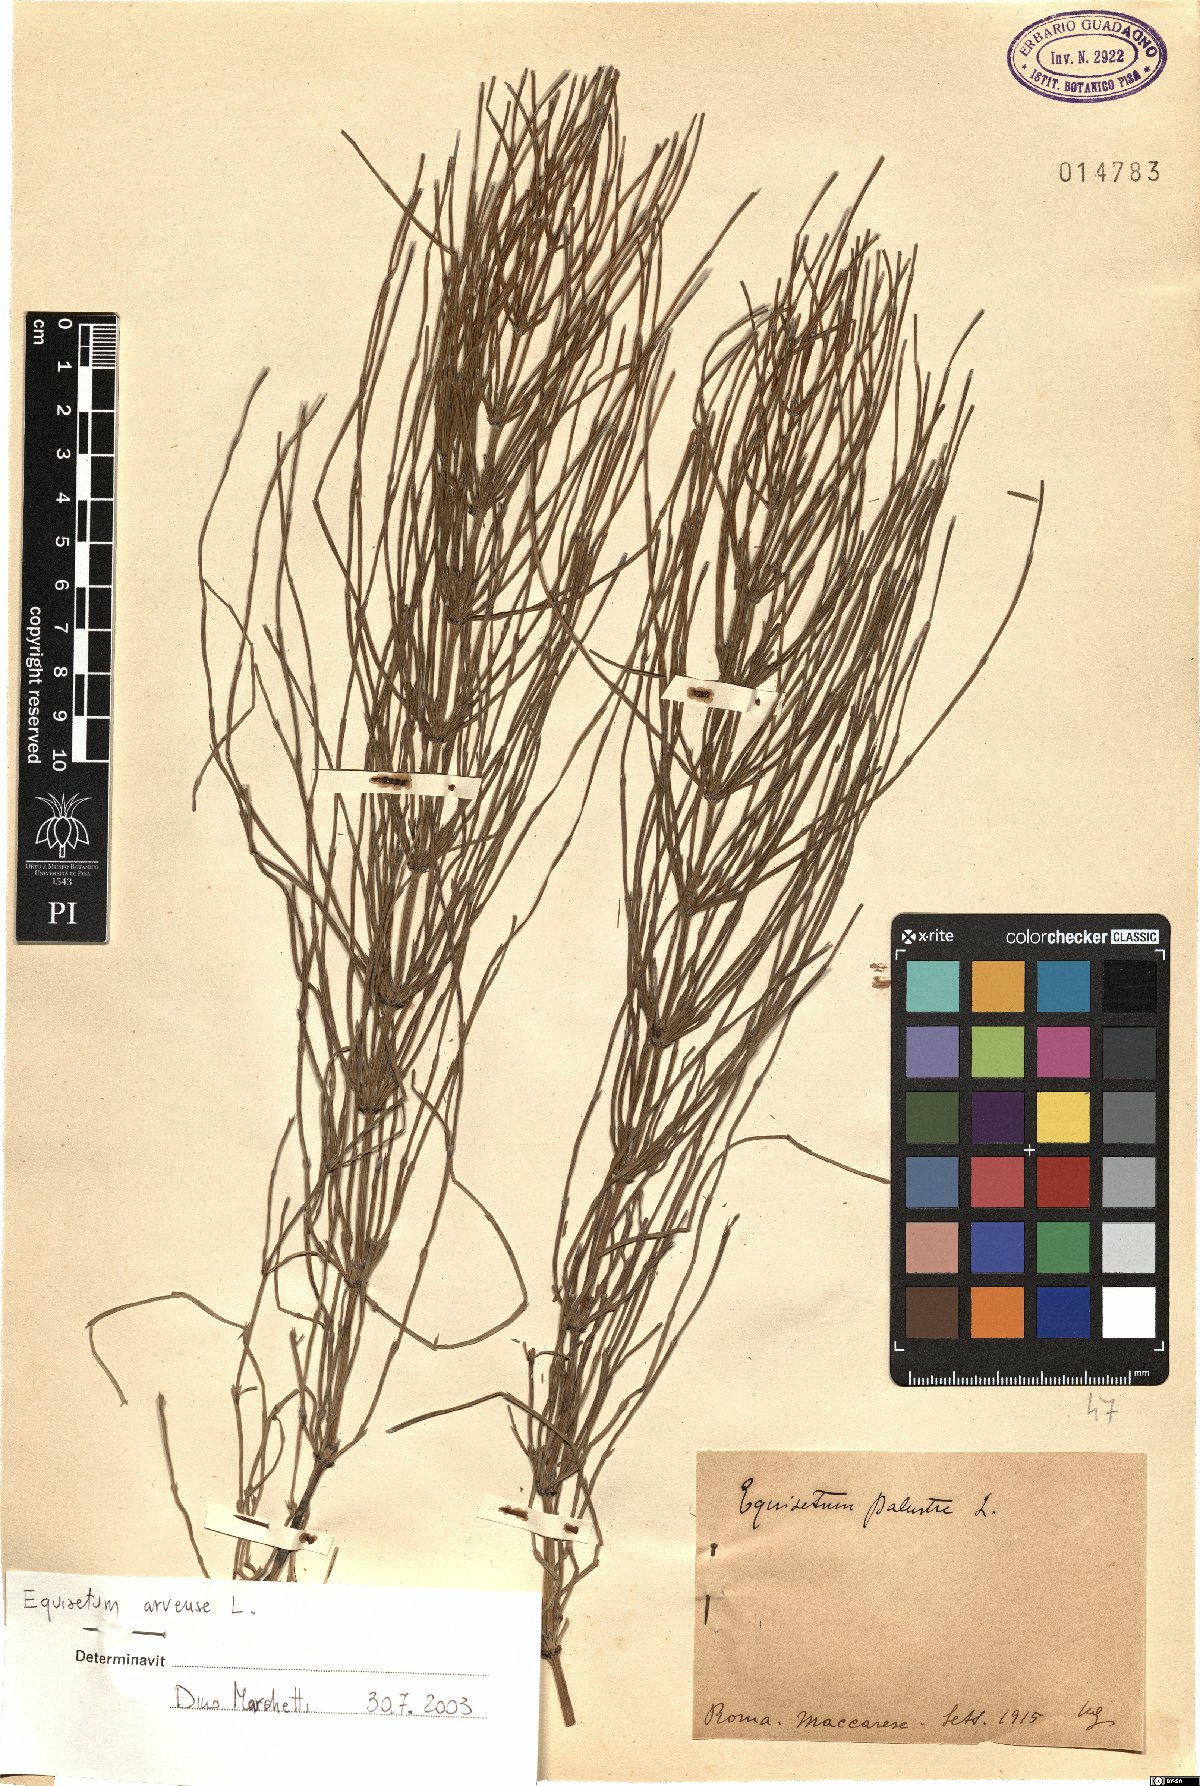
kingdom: Plantae
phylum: Tracheophyta
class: Polypodiopsida
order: Equisetales
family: Equisetaceae
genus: Equisetum
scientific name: Equisetum arvense
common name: Field horsetail
